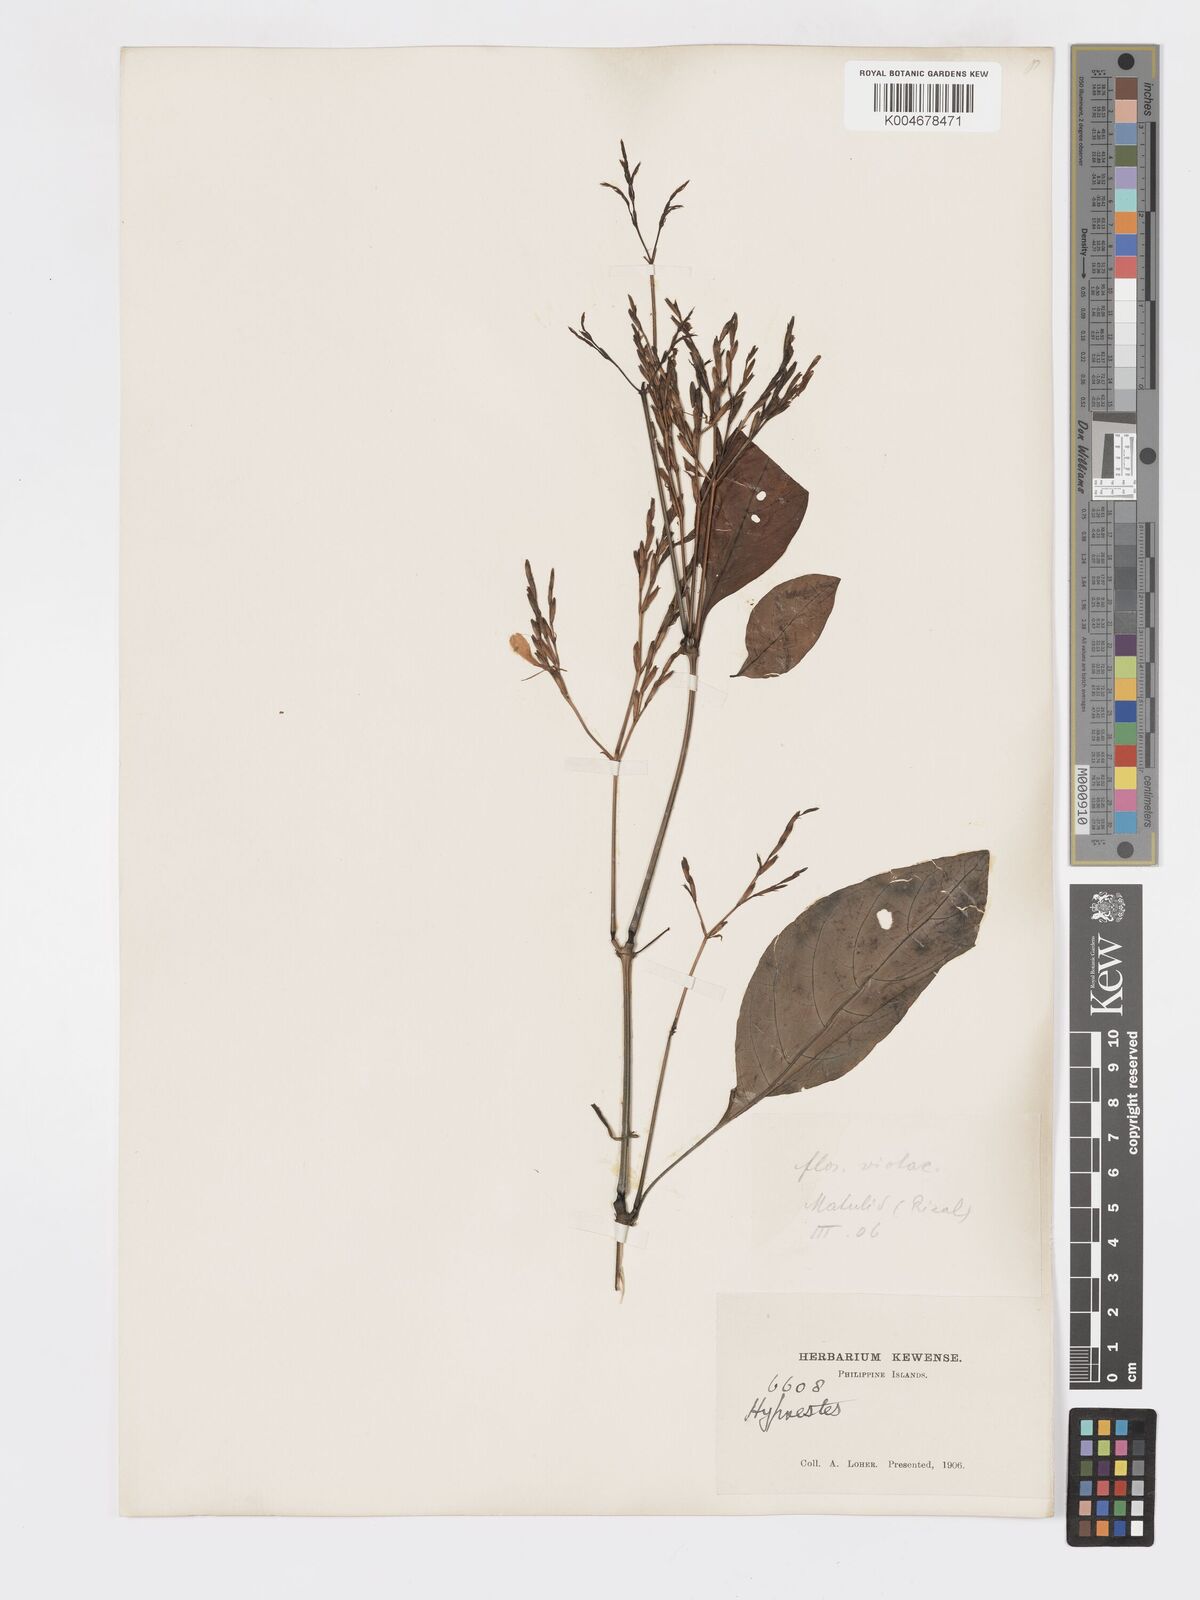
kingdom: Plantae
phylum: Tracheophyta
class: Magnoliopsida
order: Lamiales
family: Acanthaceae
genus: Hypoestes
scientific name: Hypoestes floribunda
